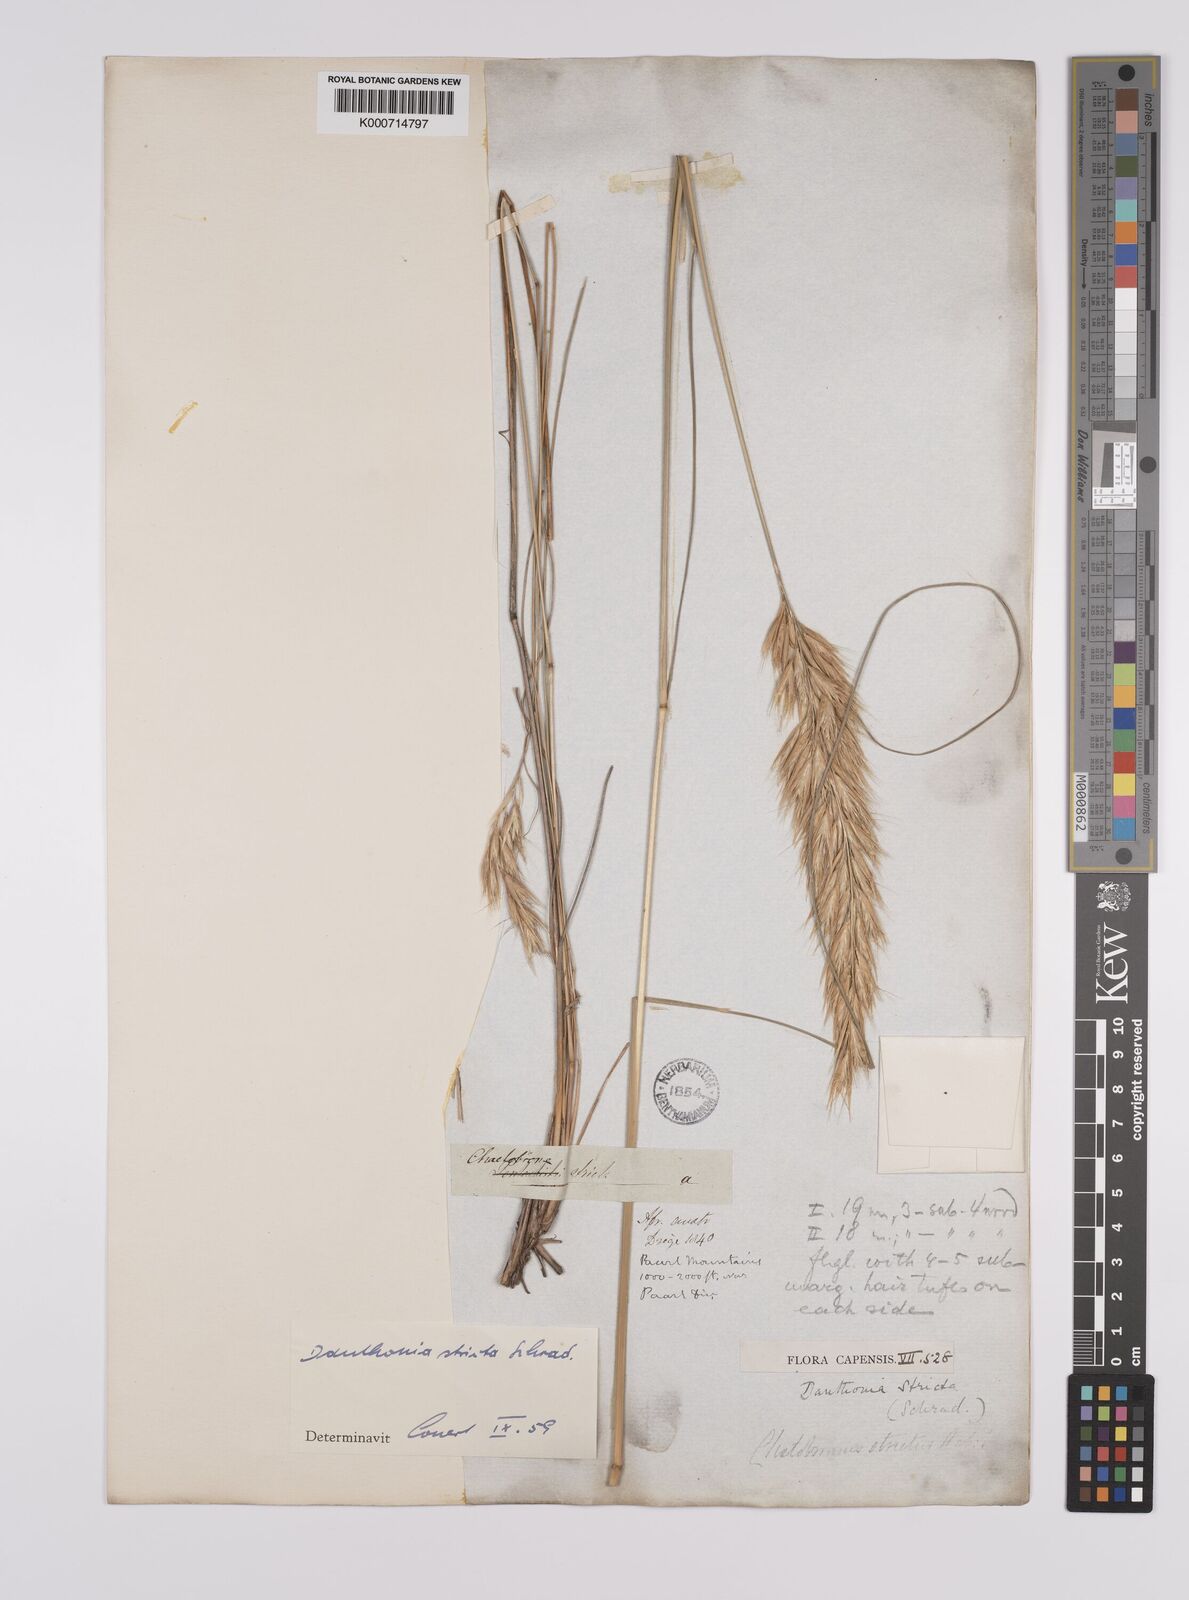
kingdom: Plantae
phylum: Tracheophyta
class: Liliopsida
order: Poales
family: Poaceae
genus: Rytidosperma
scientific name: Rytidosperma
